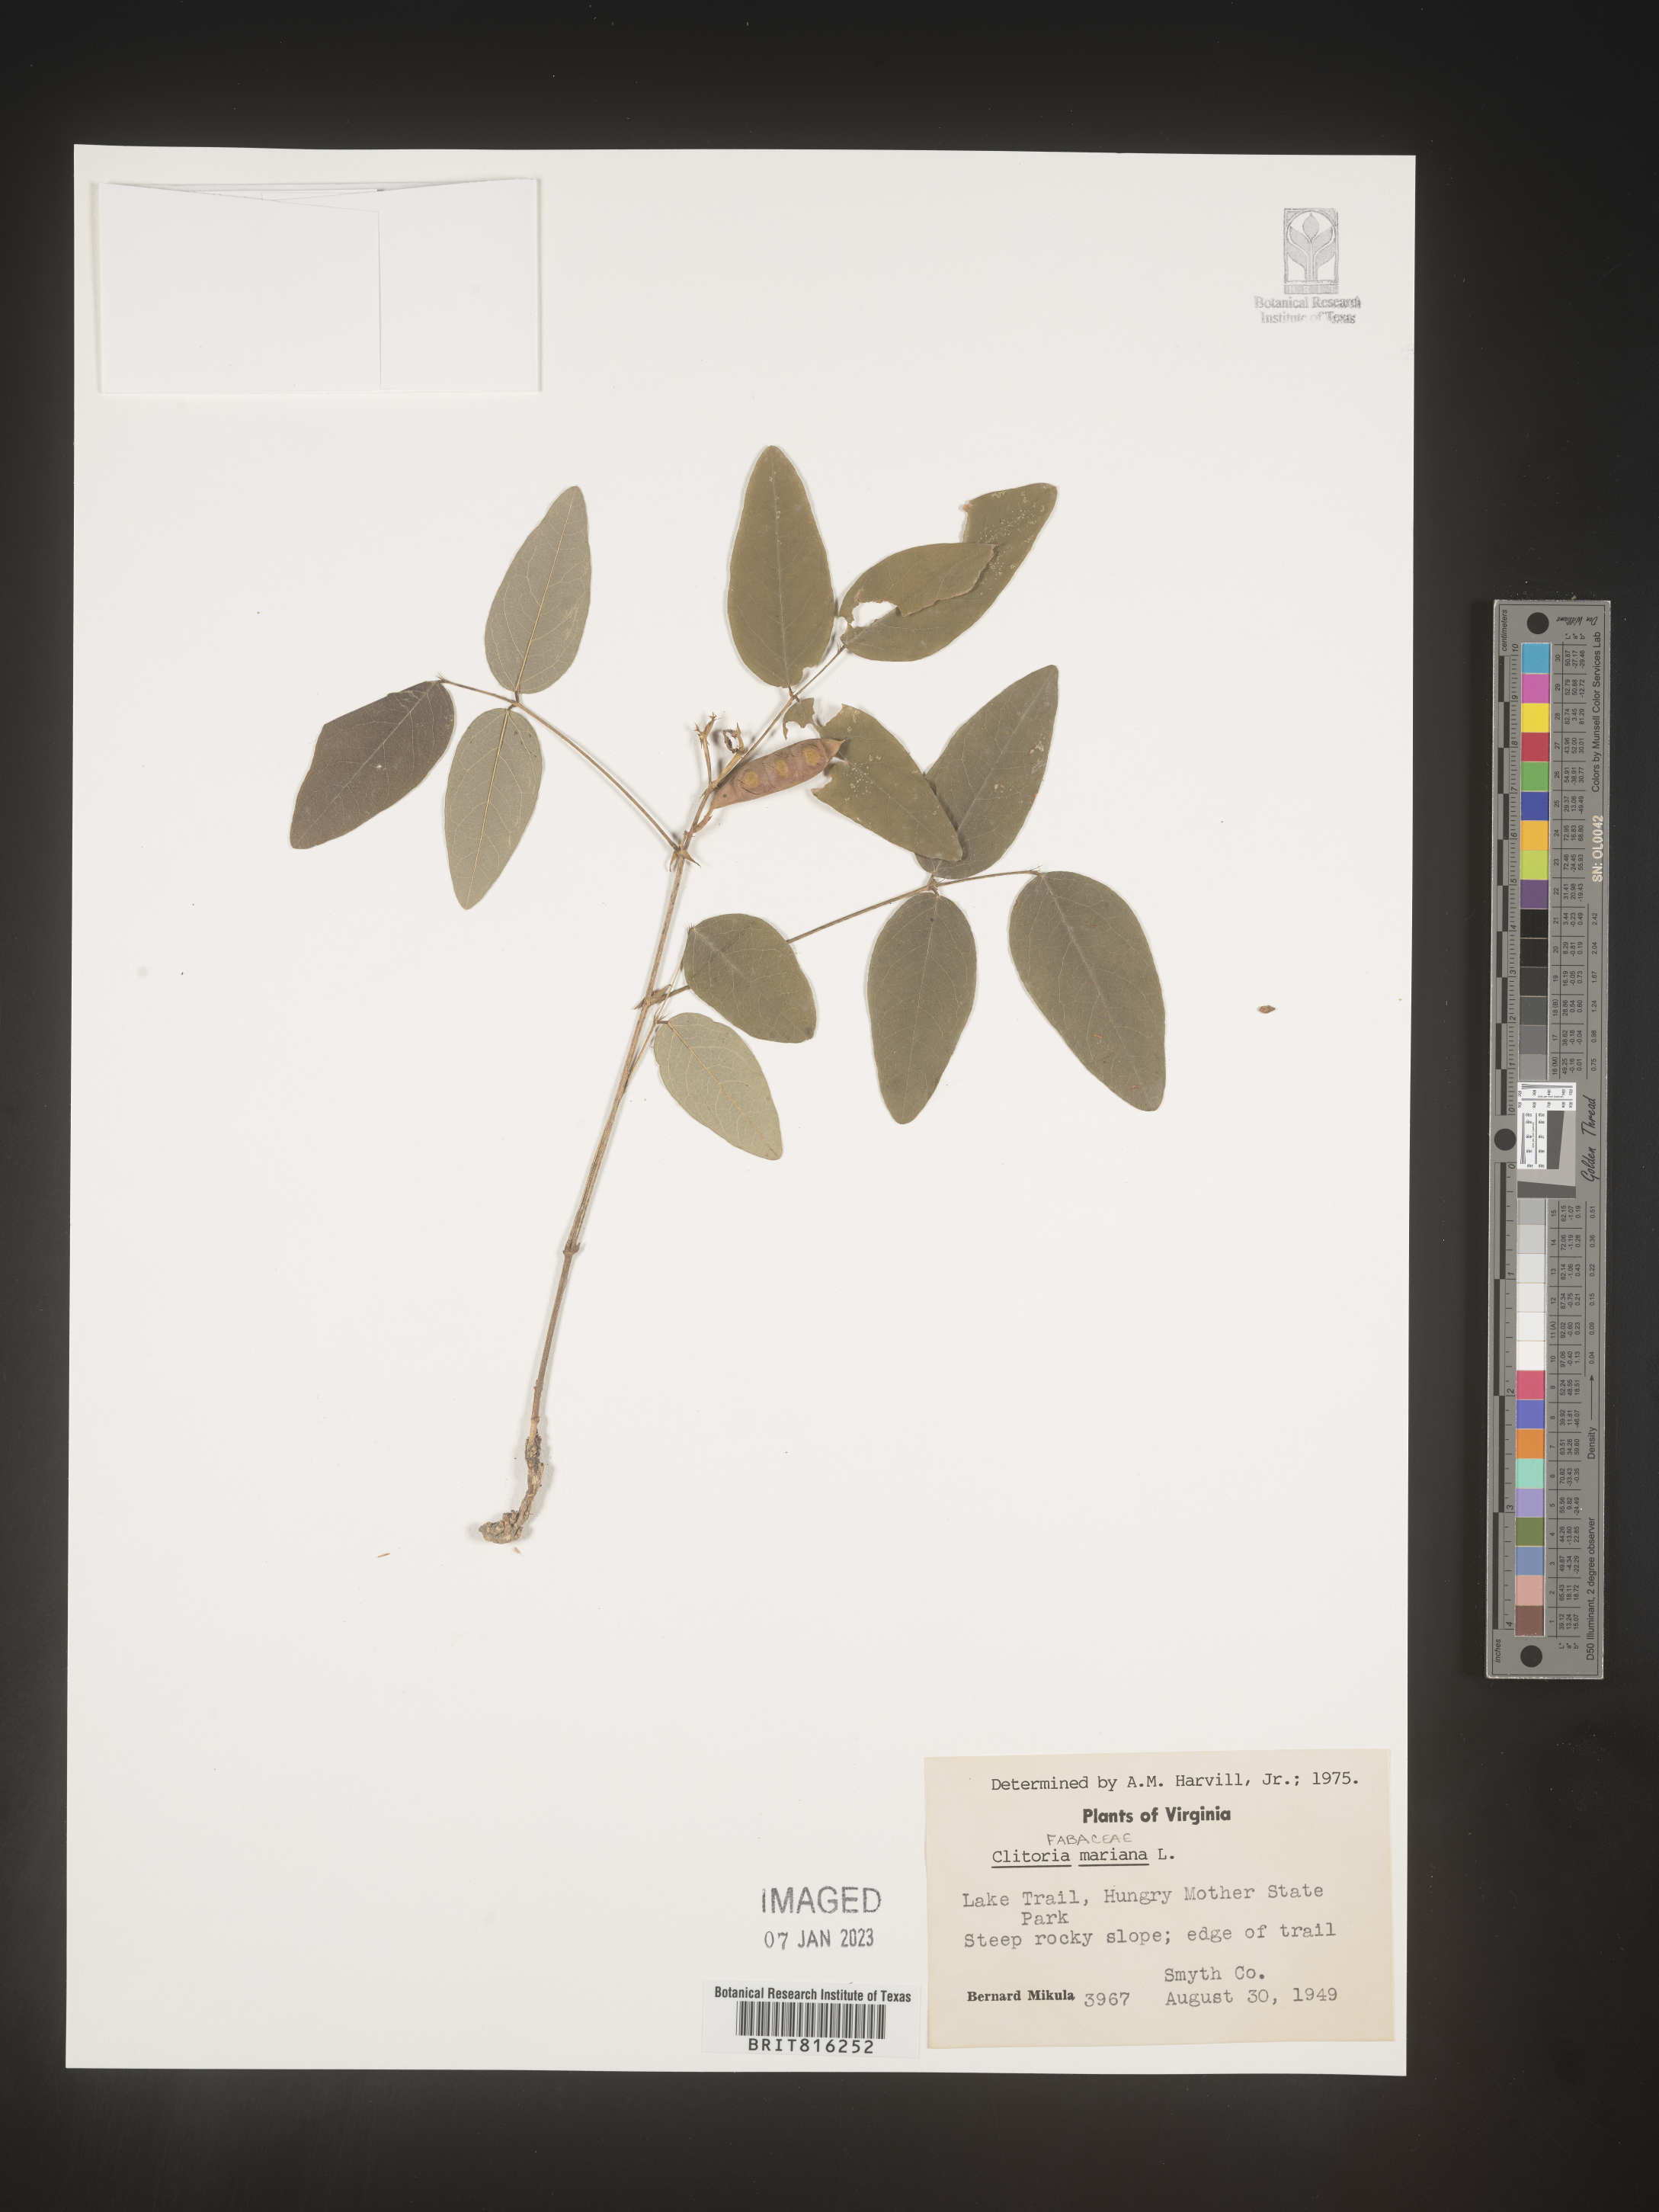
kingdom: Plantae
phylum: Tracheophyta
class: Magnoliopsida
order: Fabales
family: Fabaceae
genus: Clitoria
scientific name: Clitoria mariana
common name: Butterfly-pea
